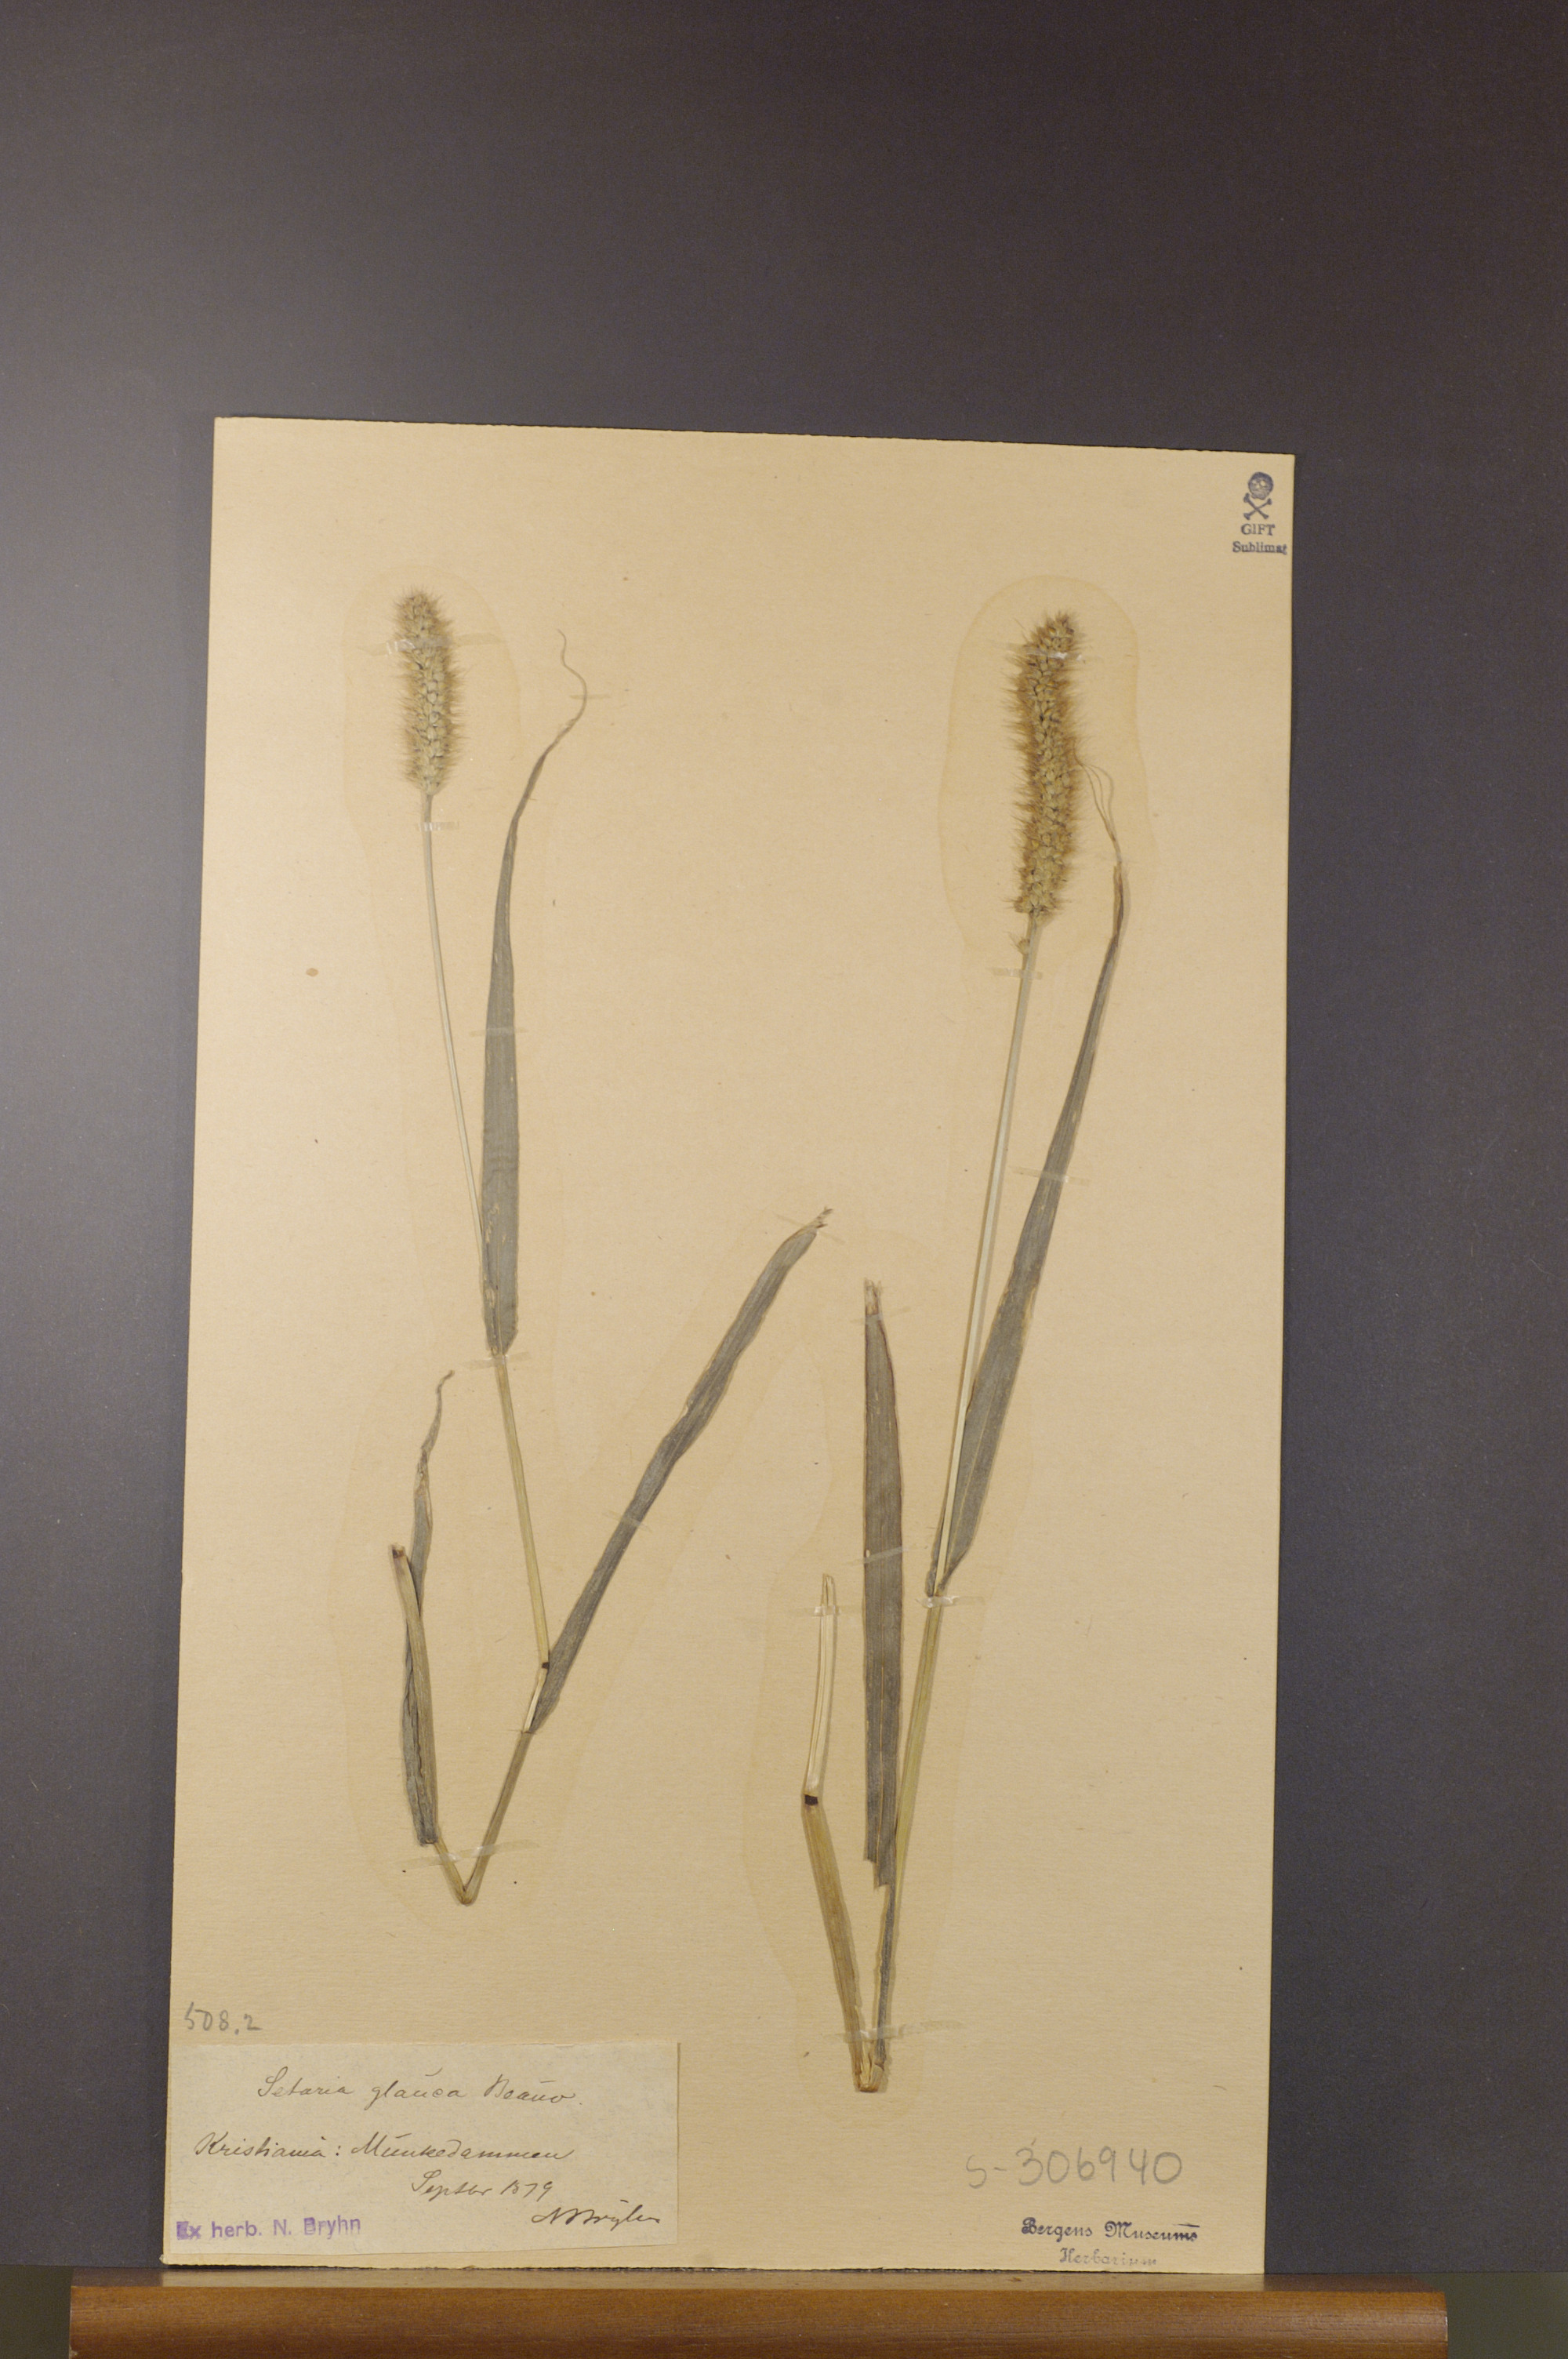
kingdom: Plantae
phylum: Tracheophyta
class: Liliopsida
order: Poales
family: Poaceae
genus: Setaria
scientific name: Setaria pumila
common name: Yellow bristle-grass
